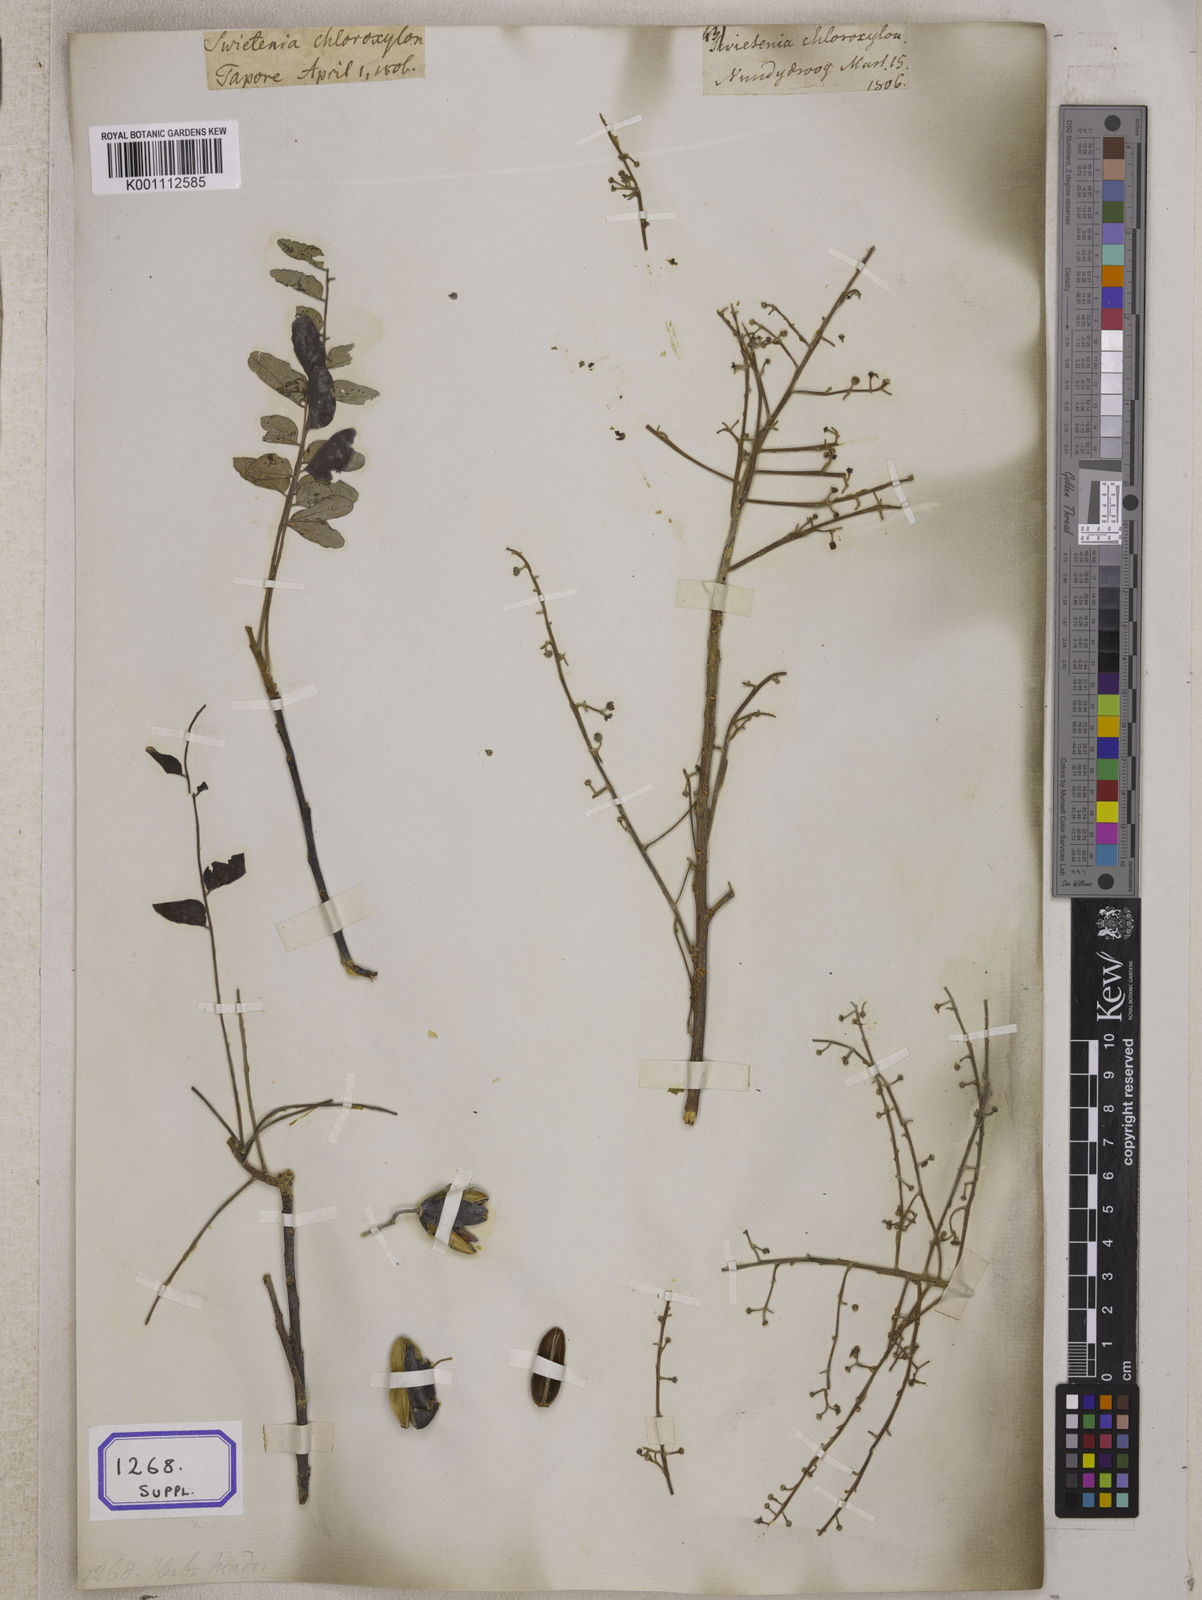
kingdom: Plantae
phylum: Tracheophyta
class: Magnoliopsida
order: Sapindales
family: Rutaceae
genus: Chloroxylon
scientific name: Chloroxylon swietenia
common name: East indian satinwood
